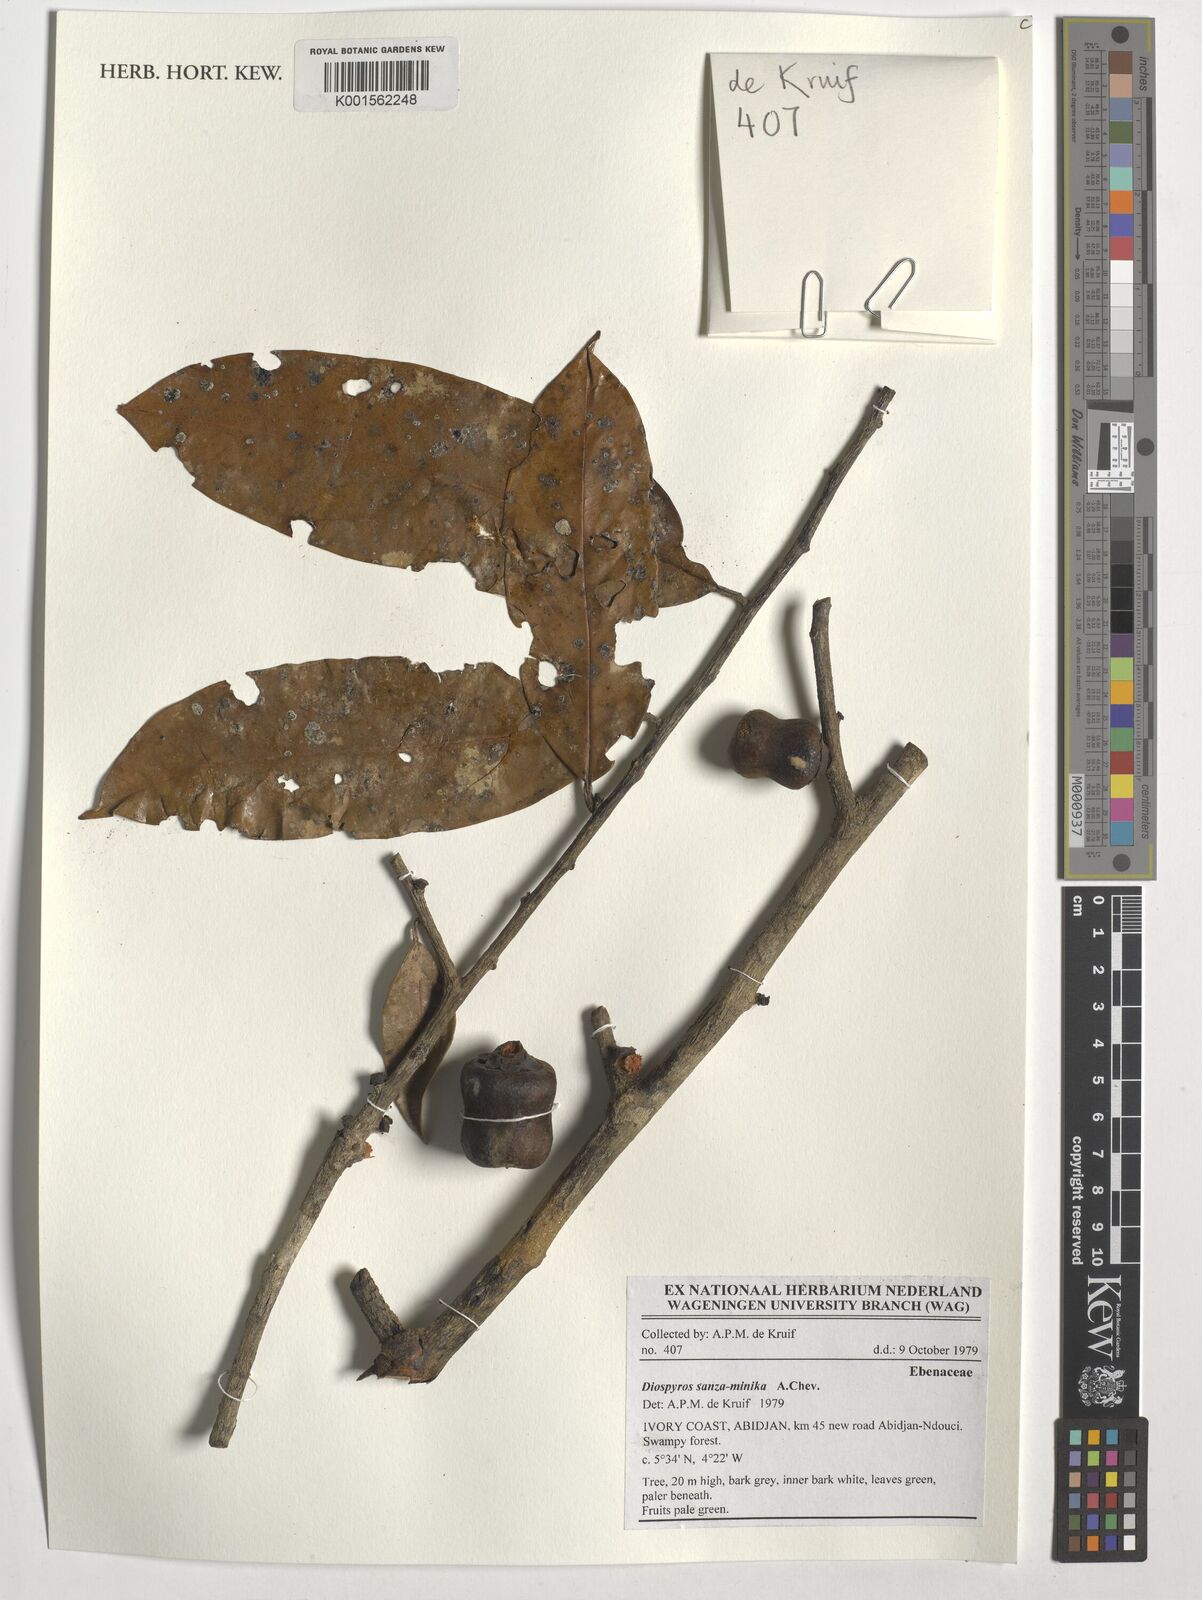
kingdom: Plantae
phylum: Tracheophyta
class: Magnoliopsida
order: Ericales
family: Ebenaceae
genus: Diospyros
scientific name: Diospyros sanza-minika
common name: Flint bark
